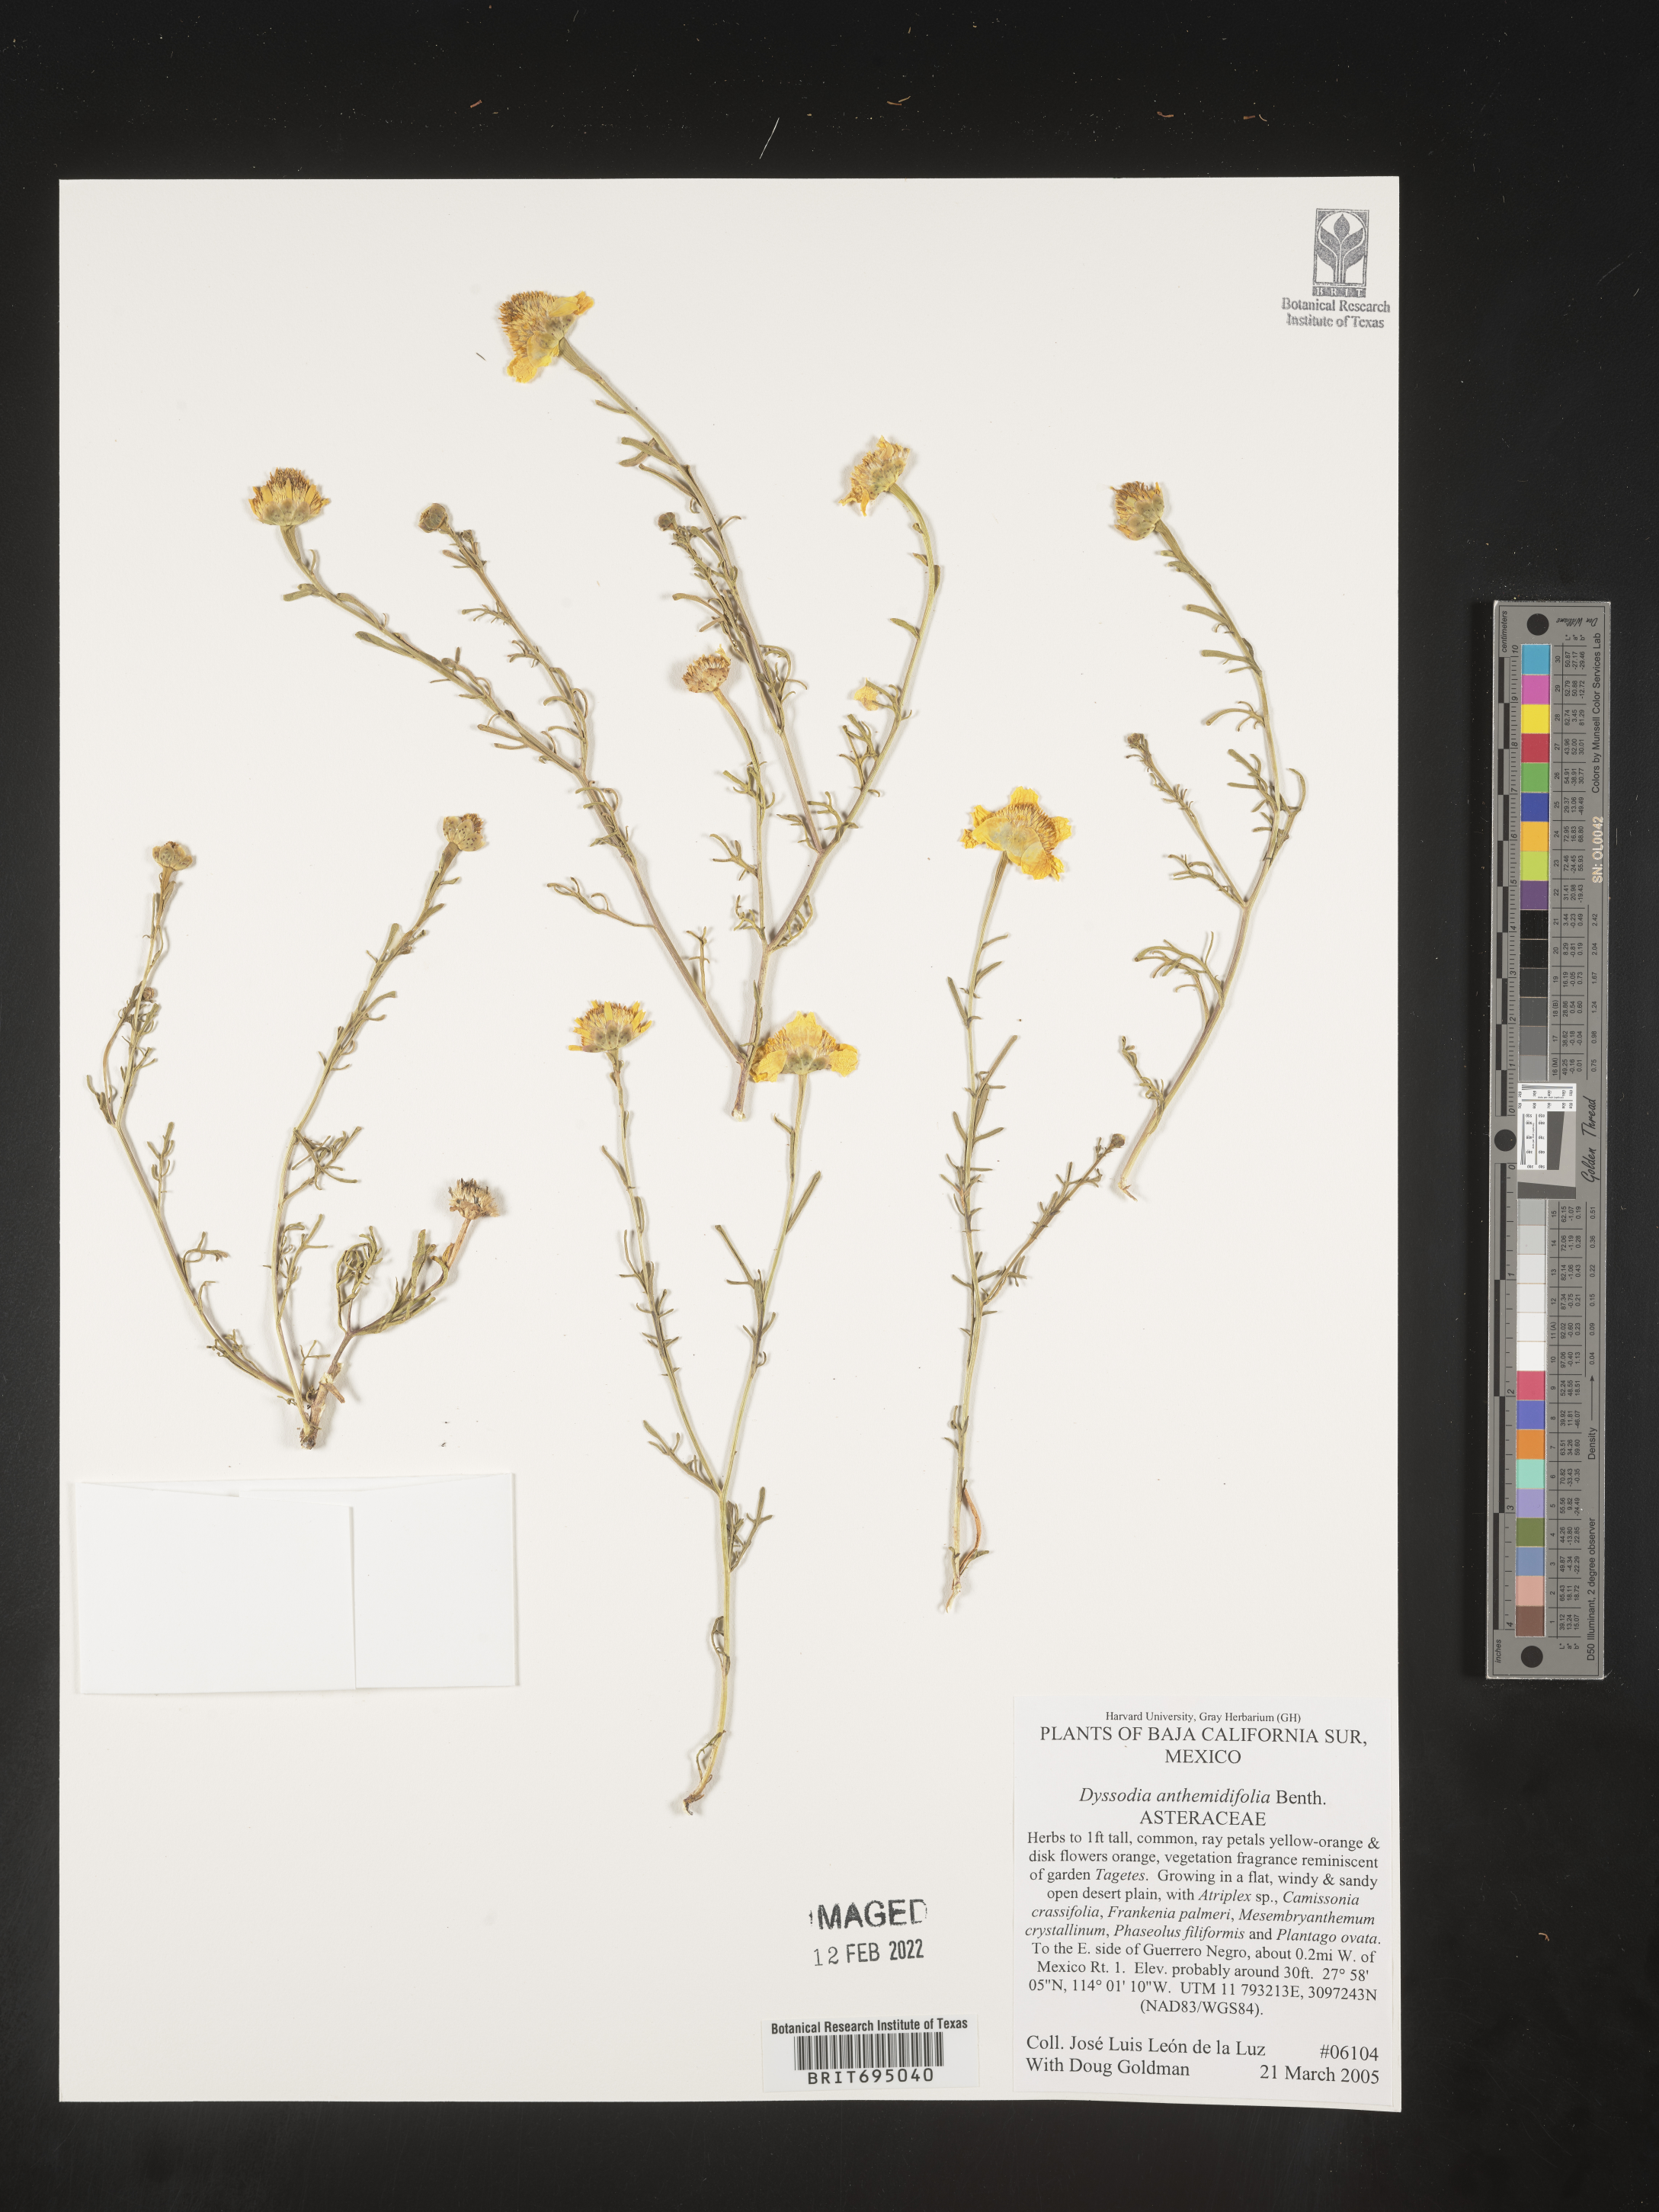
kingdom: Plantae
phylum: Tracheophyta
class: Magnoliopsida
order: Asterales
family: Asteraceae
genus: Boeberastrum
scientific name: Boeberastrum anthemidifolium
